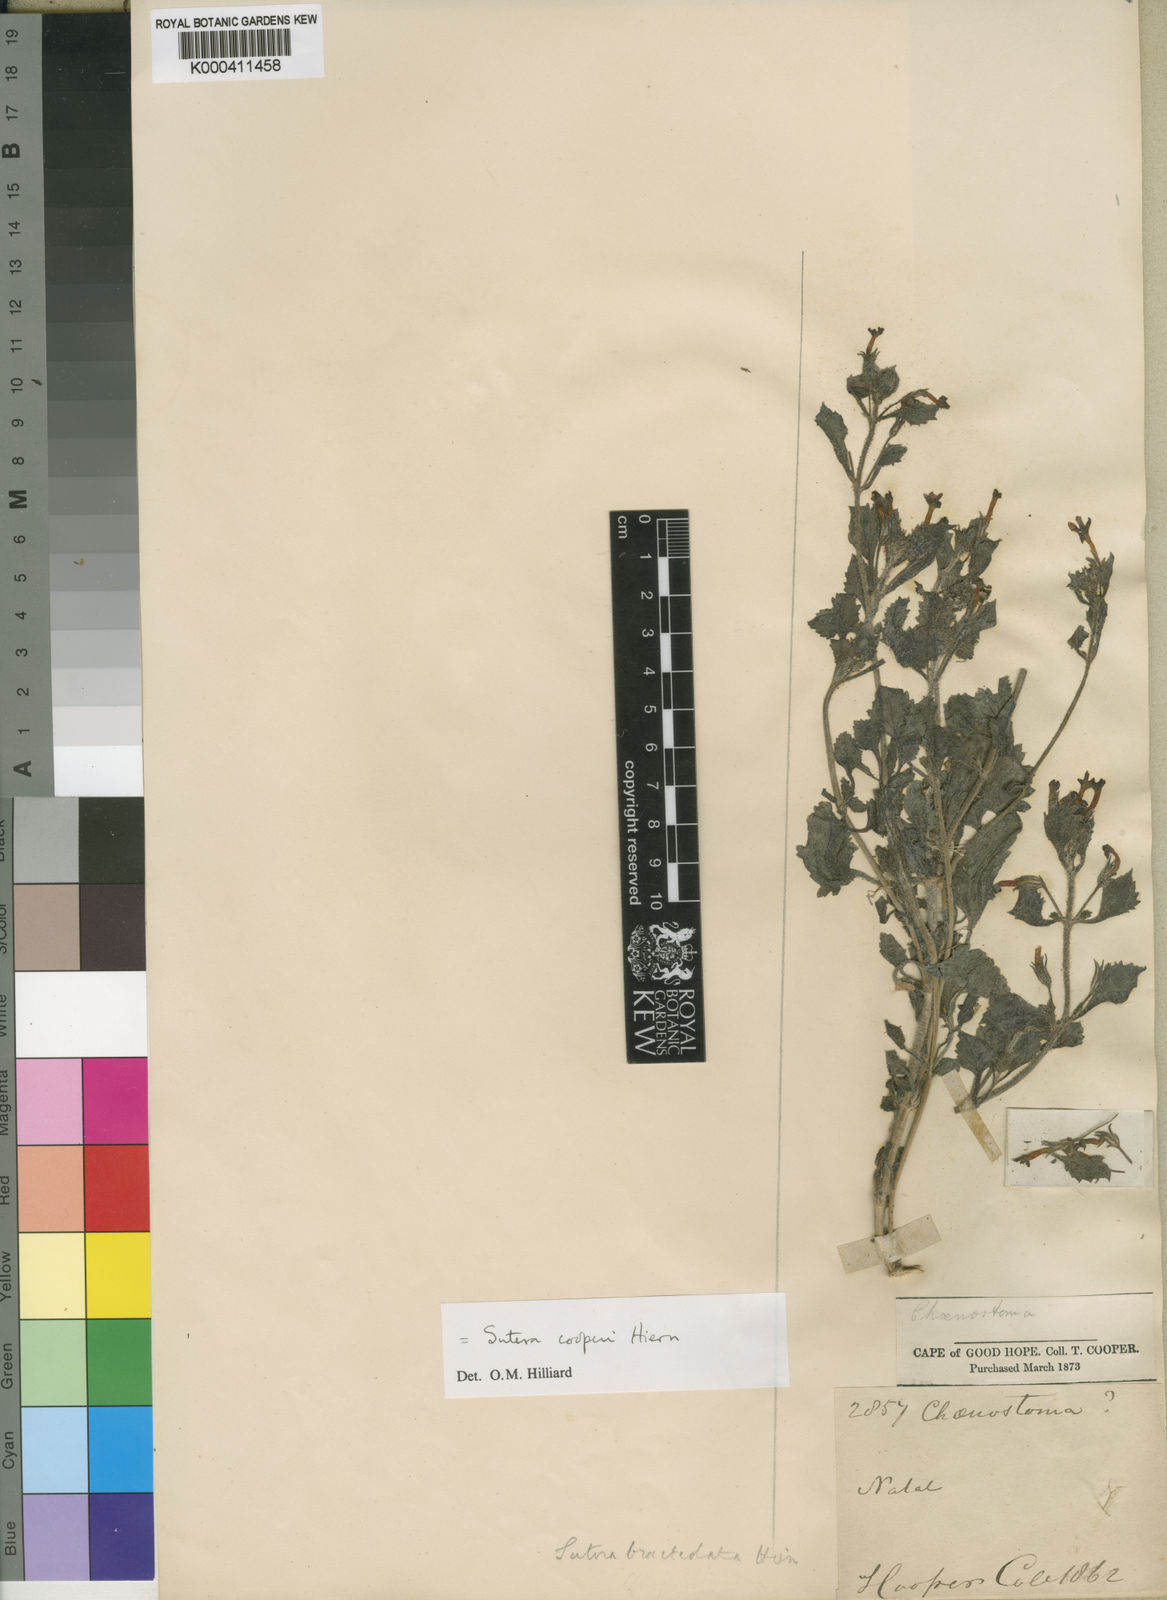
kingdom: Plantae
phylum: Tracheophyta
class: Magnoliopsida
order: Lamiales
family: Scrophulariaceae
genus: Sutera
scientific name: Sutera cooperi
